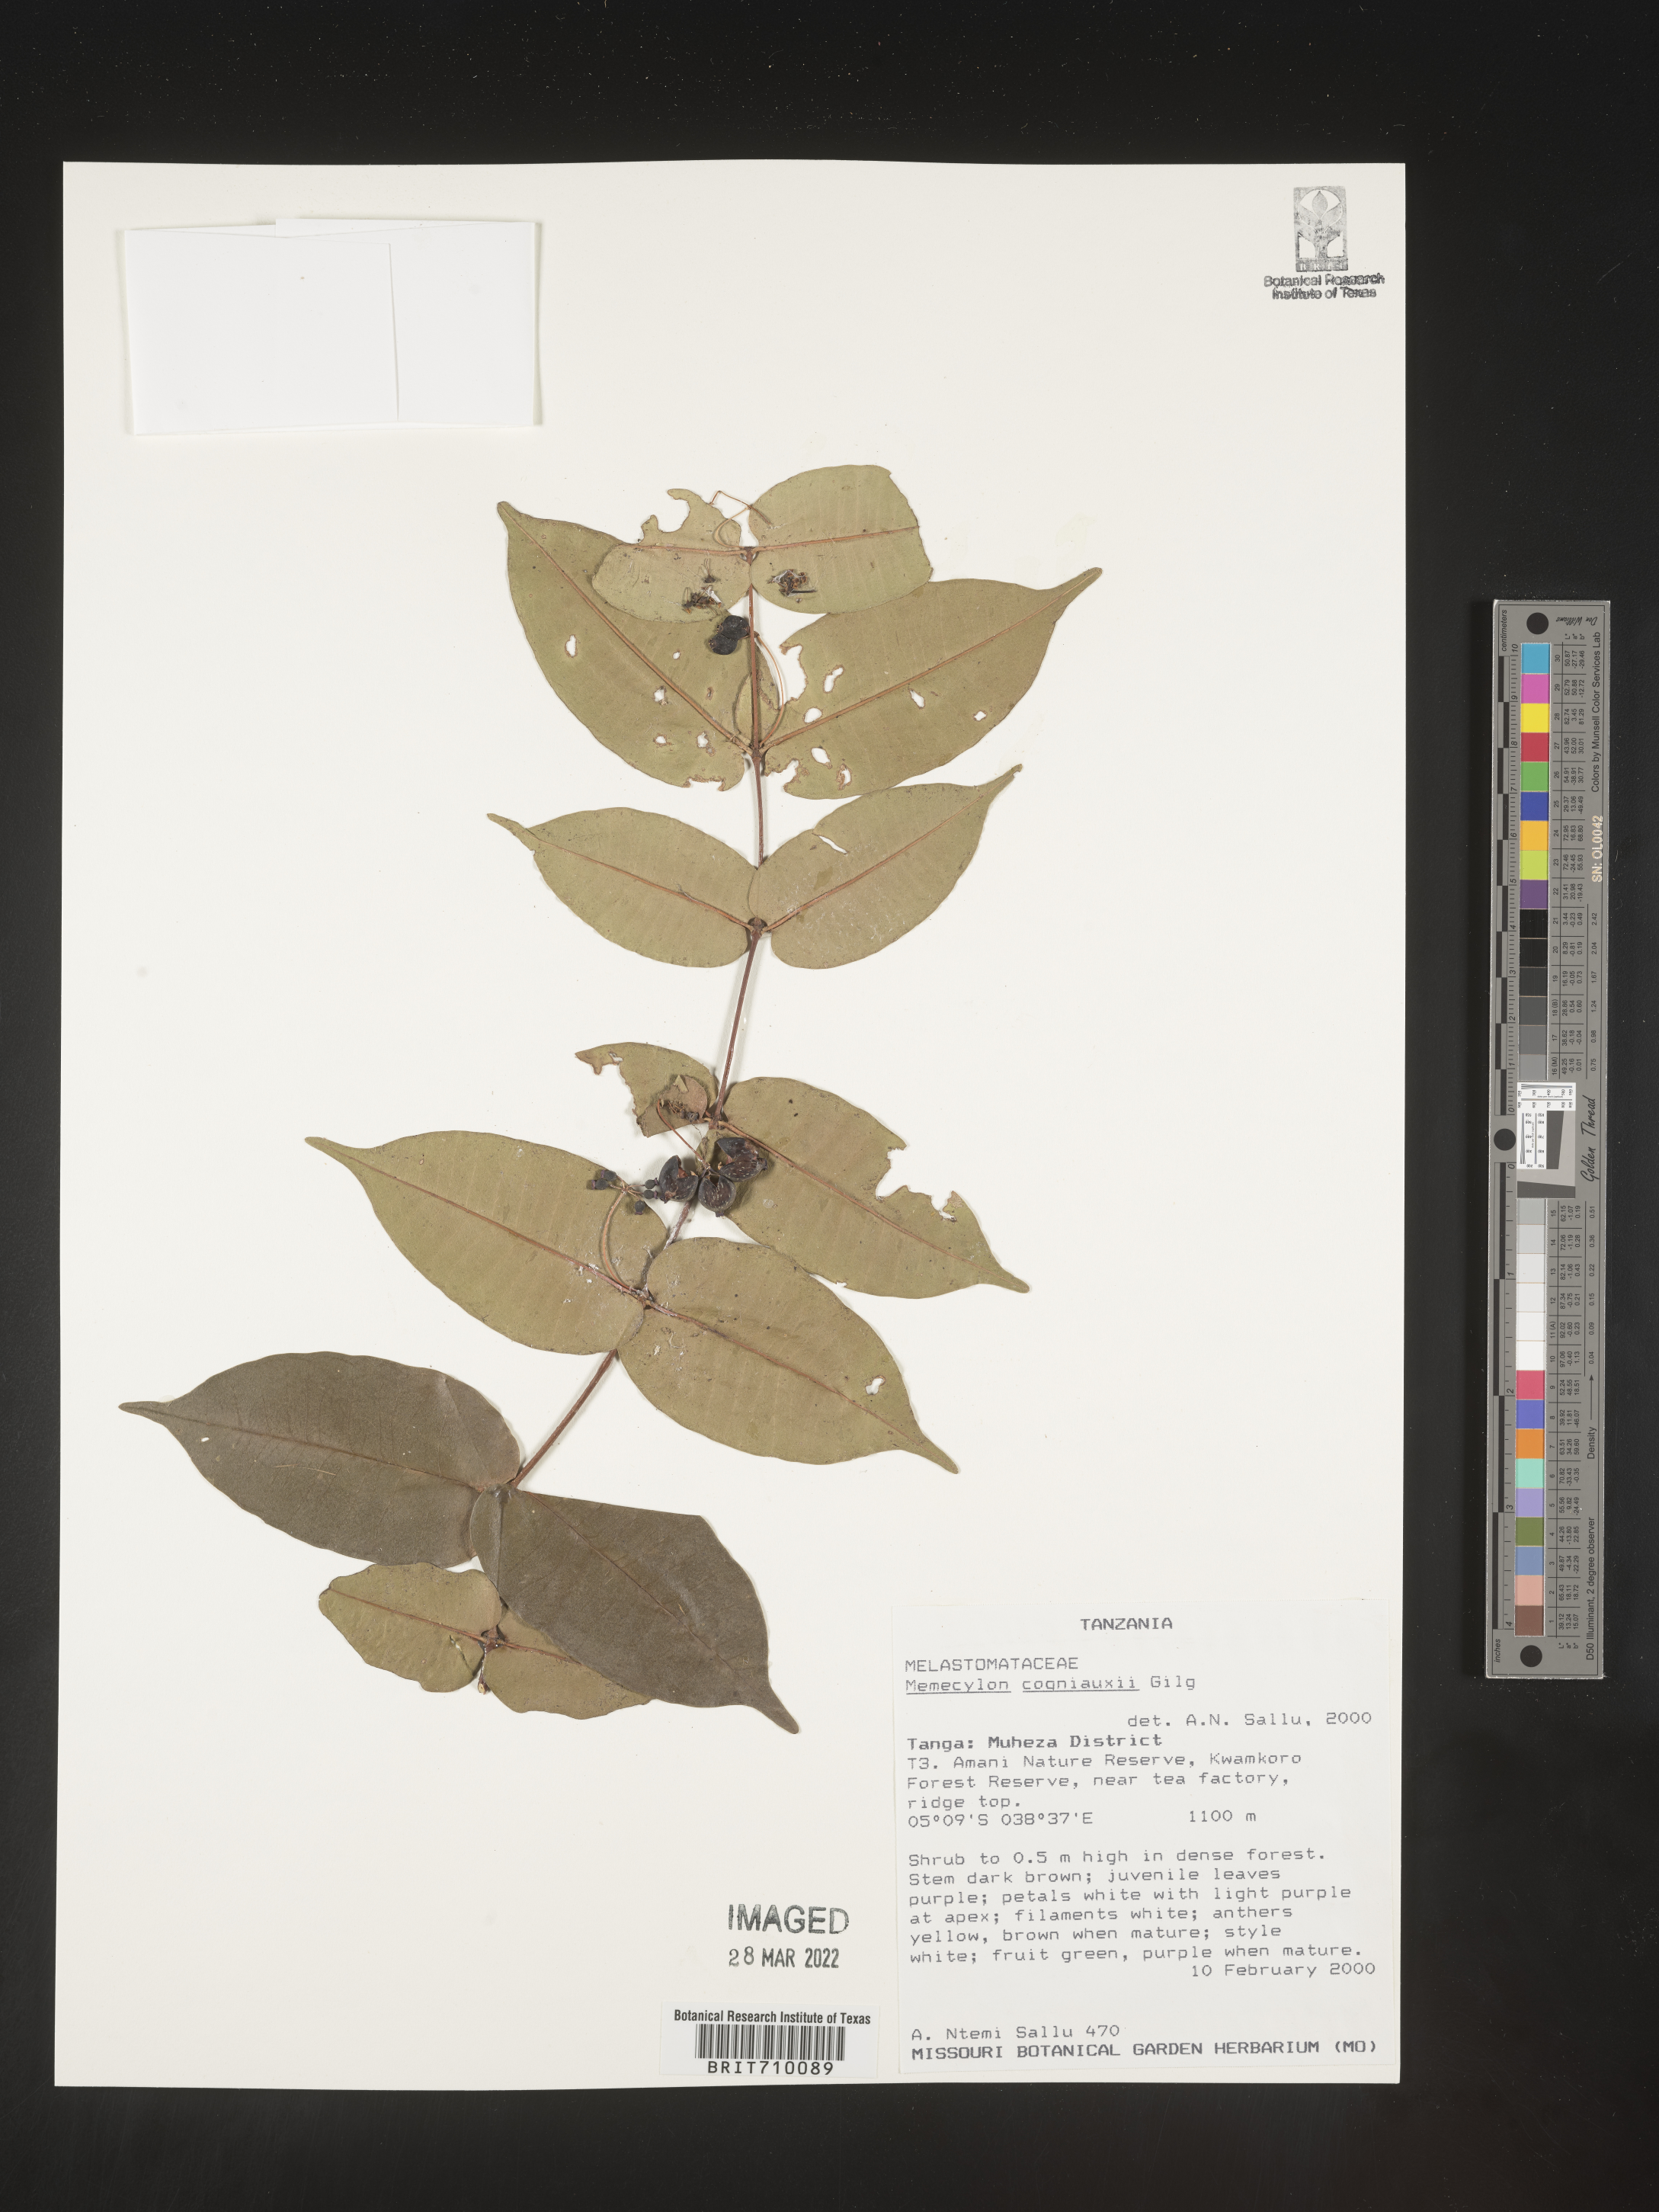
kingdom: Plantae
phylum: Tracheophyta
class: Magnoliopsida
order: Myrtales
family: Melastomataceae
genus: Memecylon
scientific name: Memecylon
